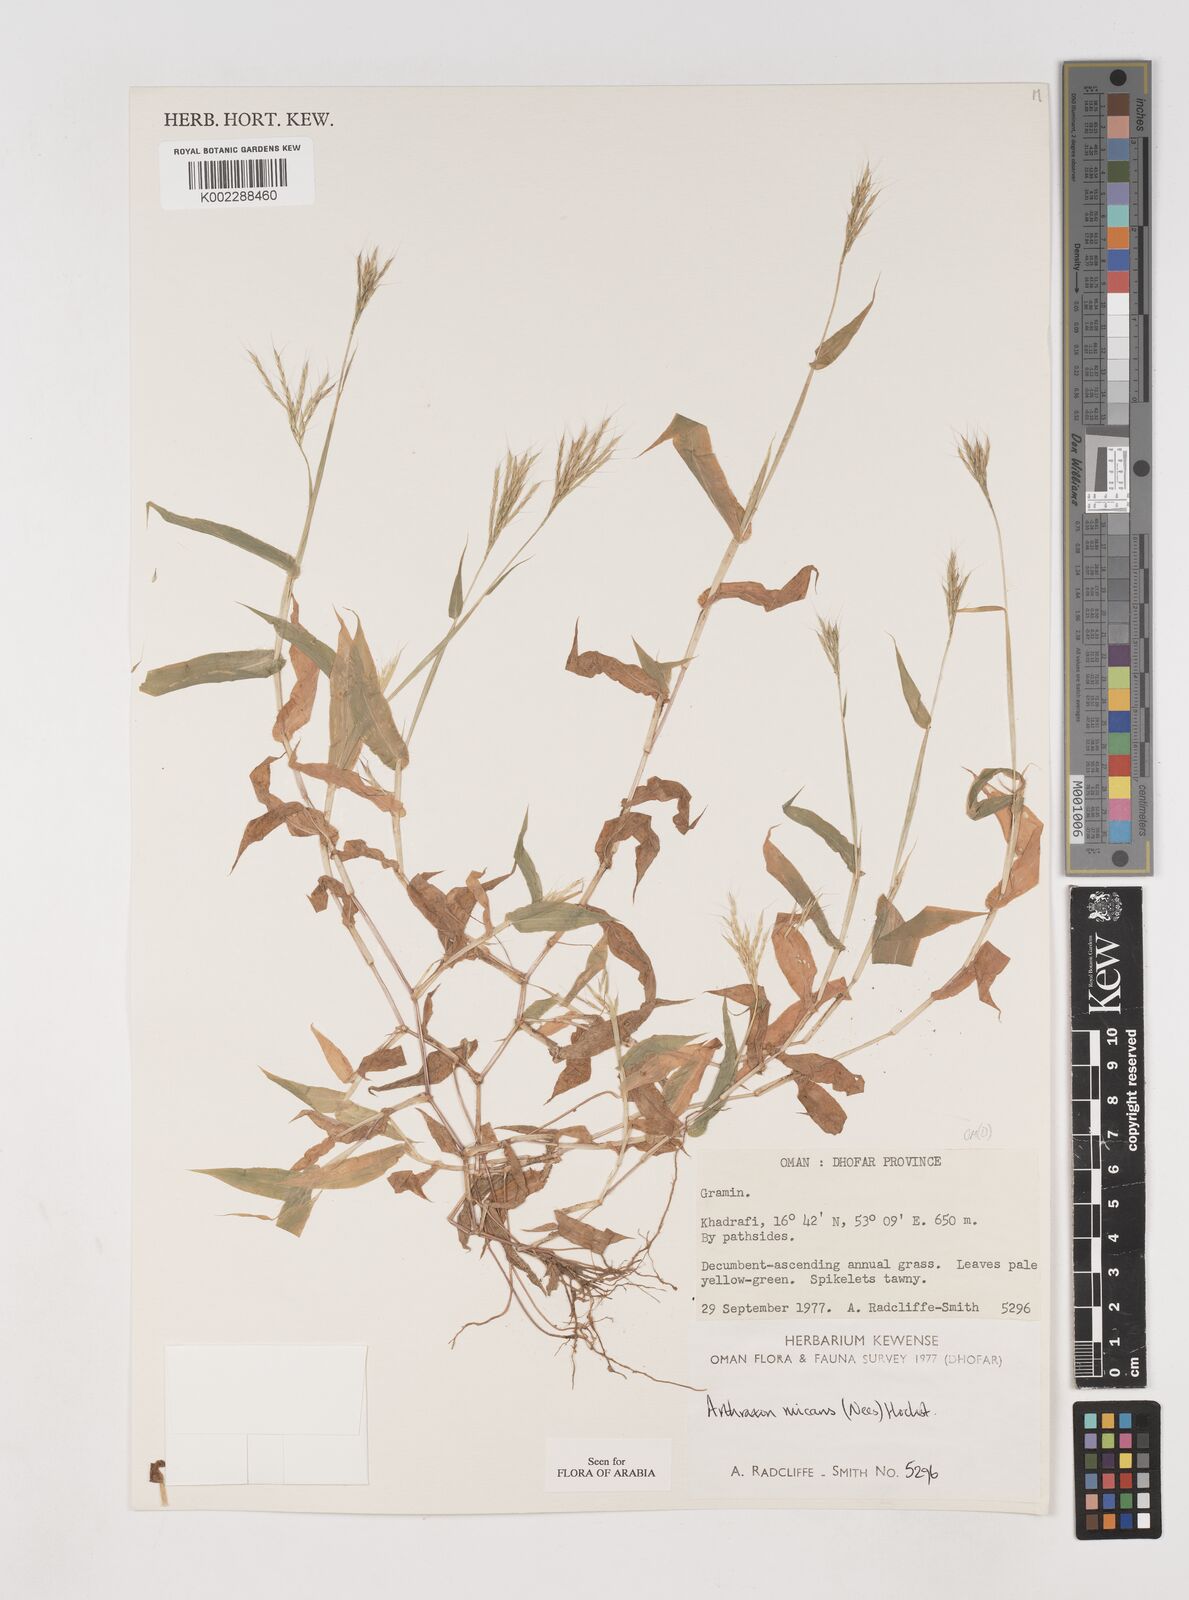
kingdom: Plantae
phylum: Tracheophyta
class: Liliopsida
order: Poales
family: Poaceae
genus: Arthraxon
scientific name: Arthraxon hispidus
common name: Small carpgrass
